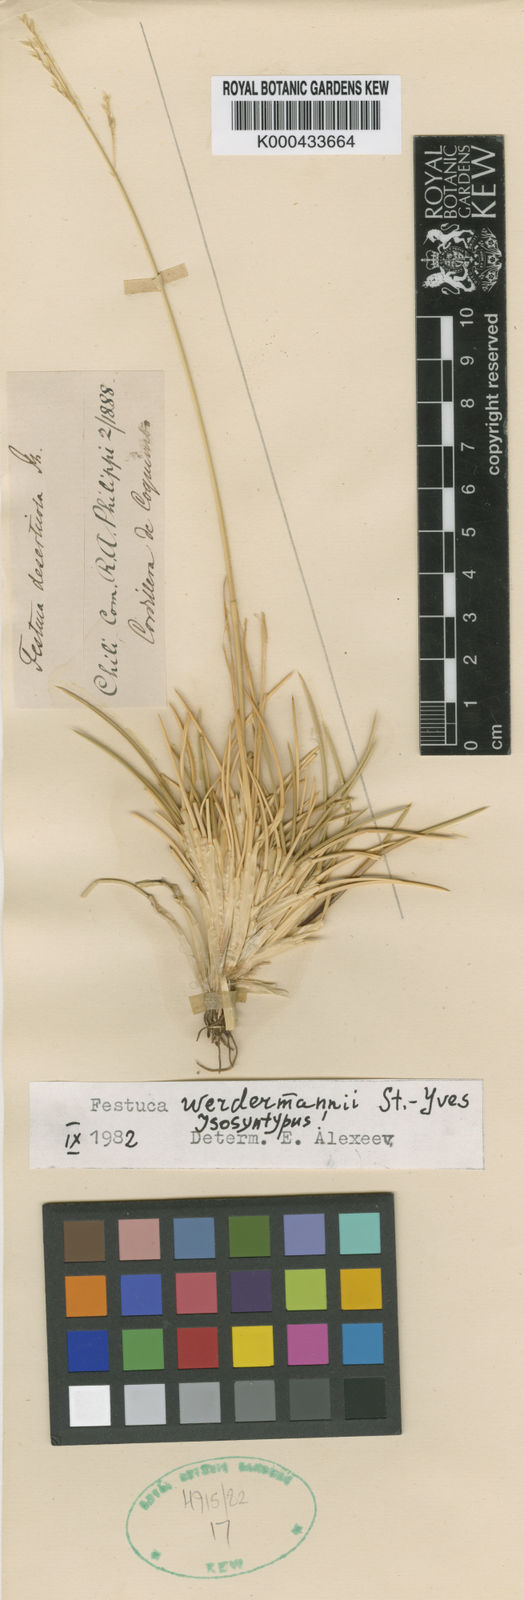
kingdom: Plantae
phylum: Tracheophyta
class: Liliopsida
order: Poales
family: Poaceae
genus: Festuca
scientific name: Festuca werdermannii
